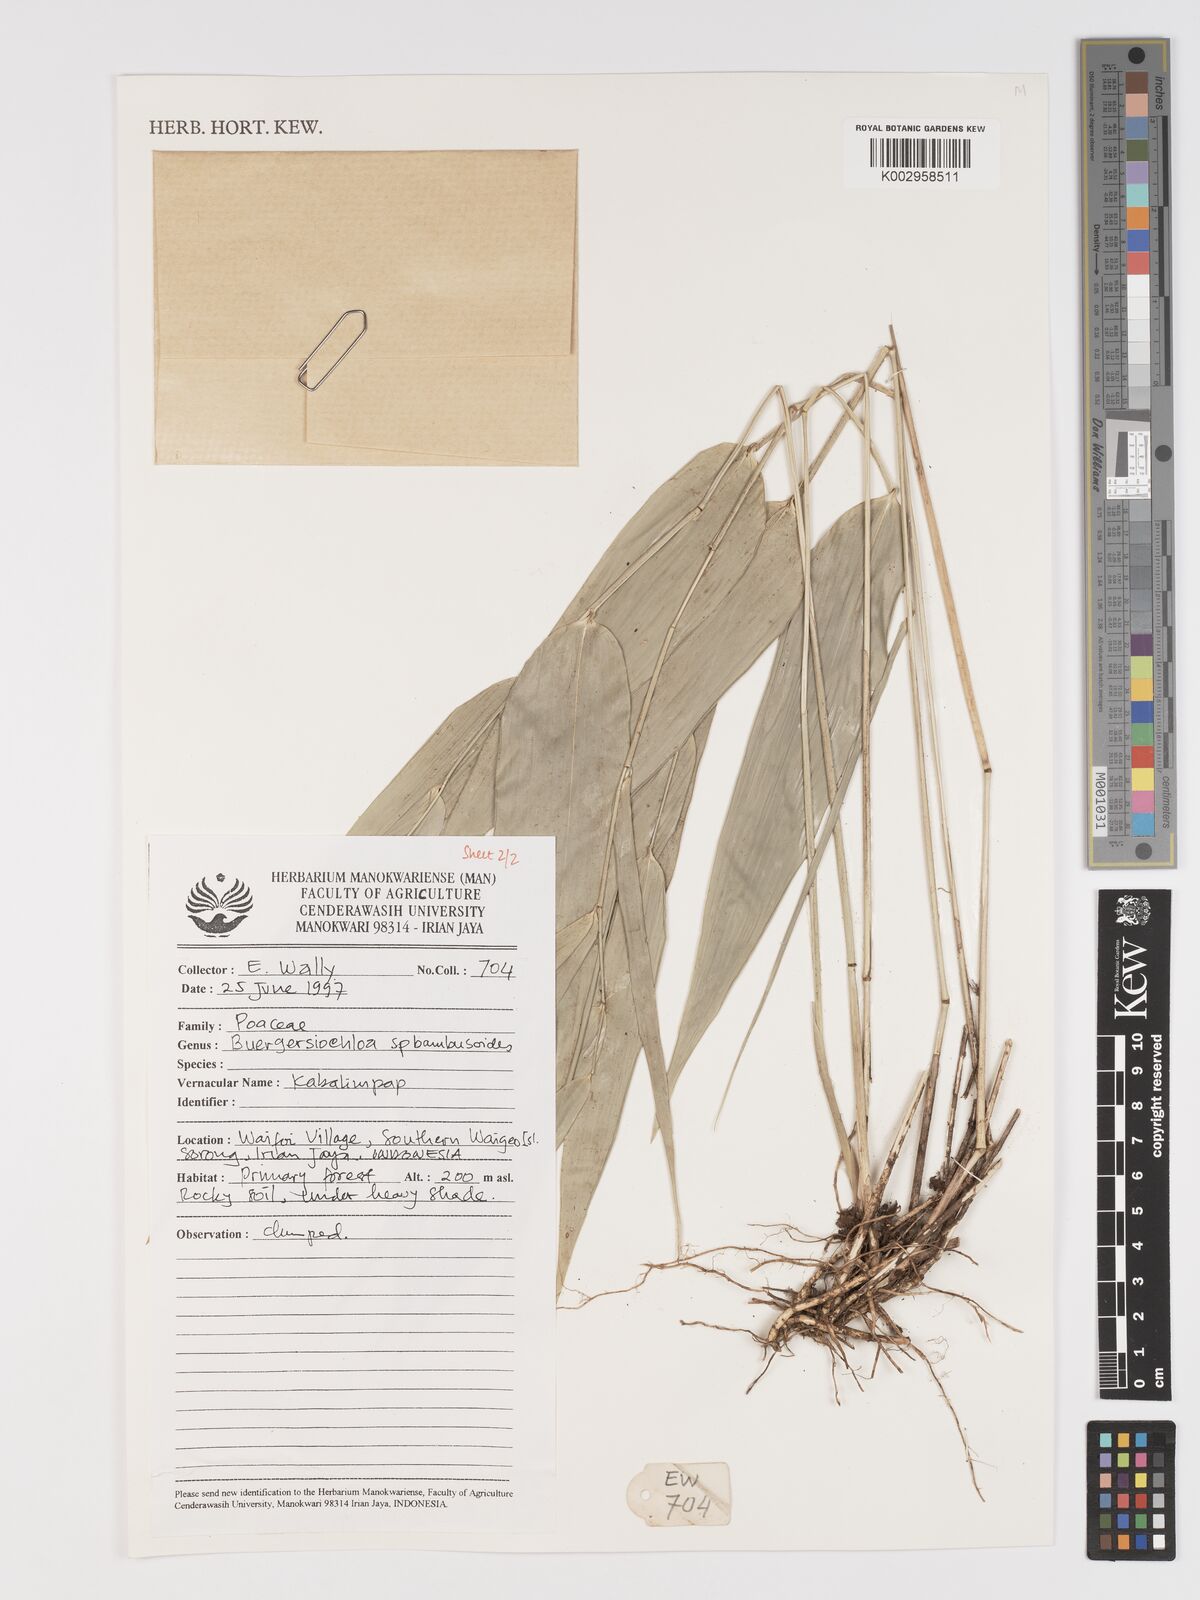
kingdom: Plantae
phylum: Tracheophyta
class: Liliopsida
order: Poales
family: Poaceae
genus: Buergersiochloa
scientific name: Buergersiochloa bambusoides
